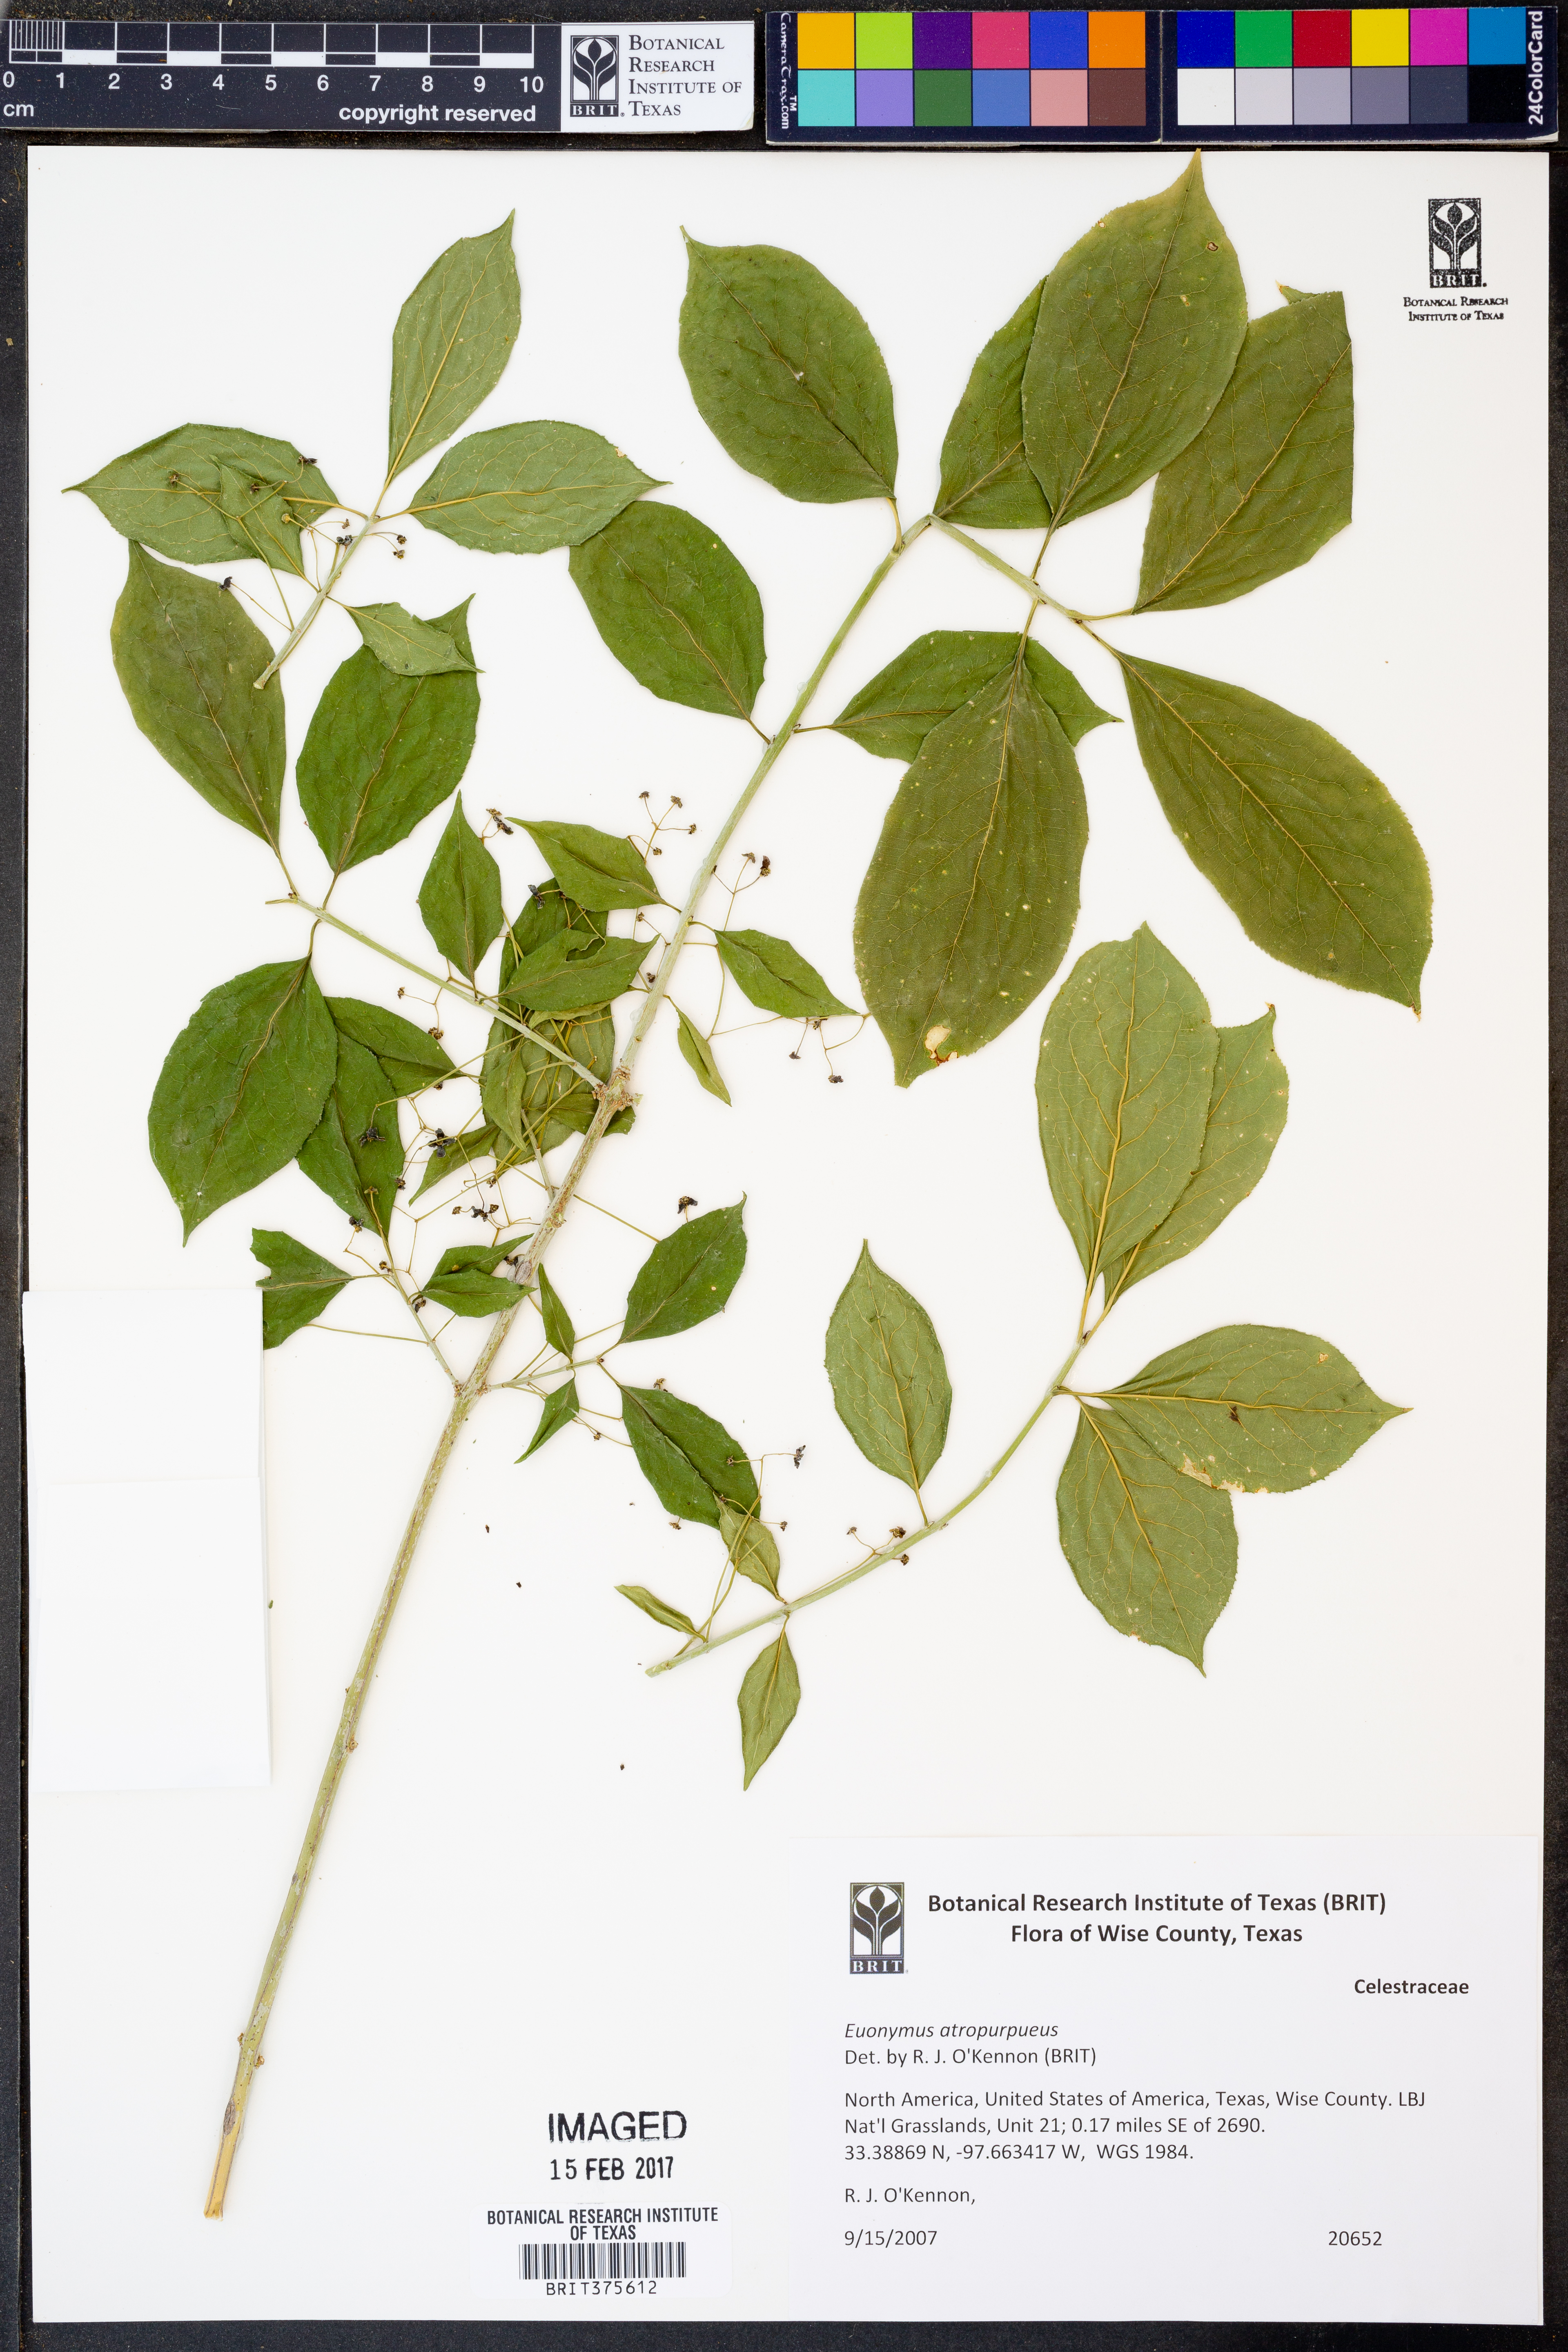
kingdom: Plantae
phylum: Tracheophyta
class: Magnoliopsida
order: Celastrales
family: Celastraceae
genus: Euonymus
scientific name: Euonymus atropurpureus
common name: Eastern wahoo
